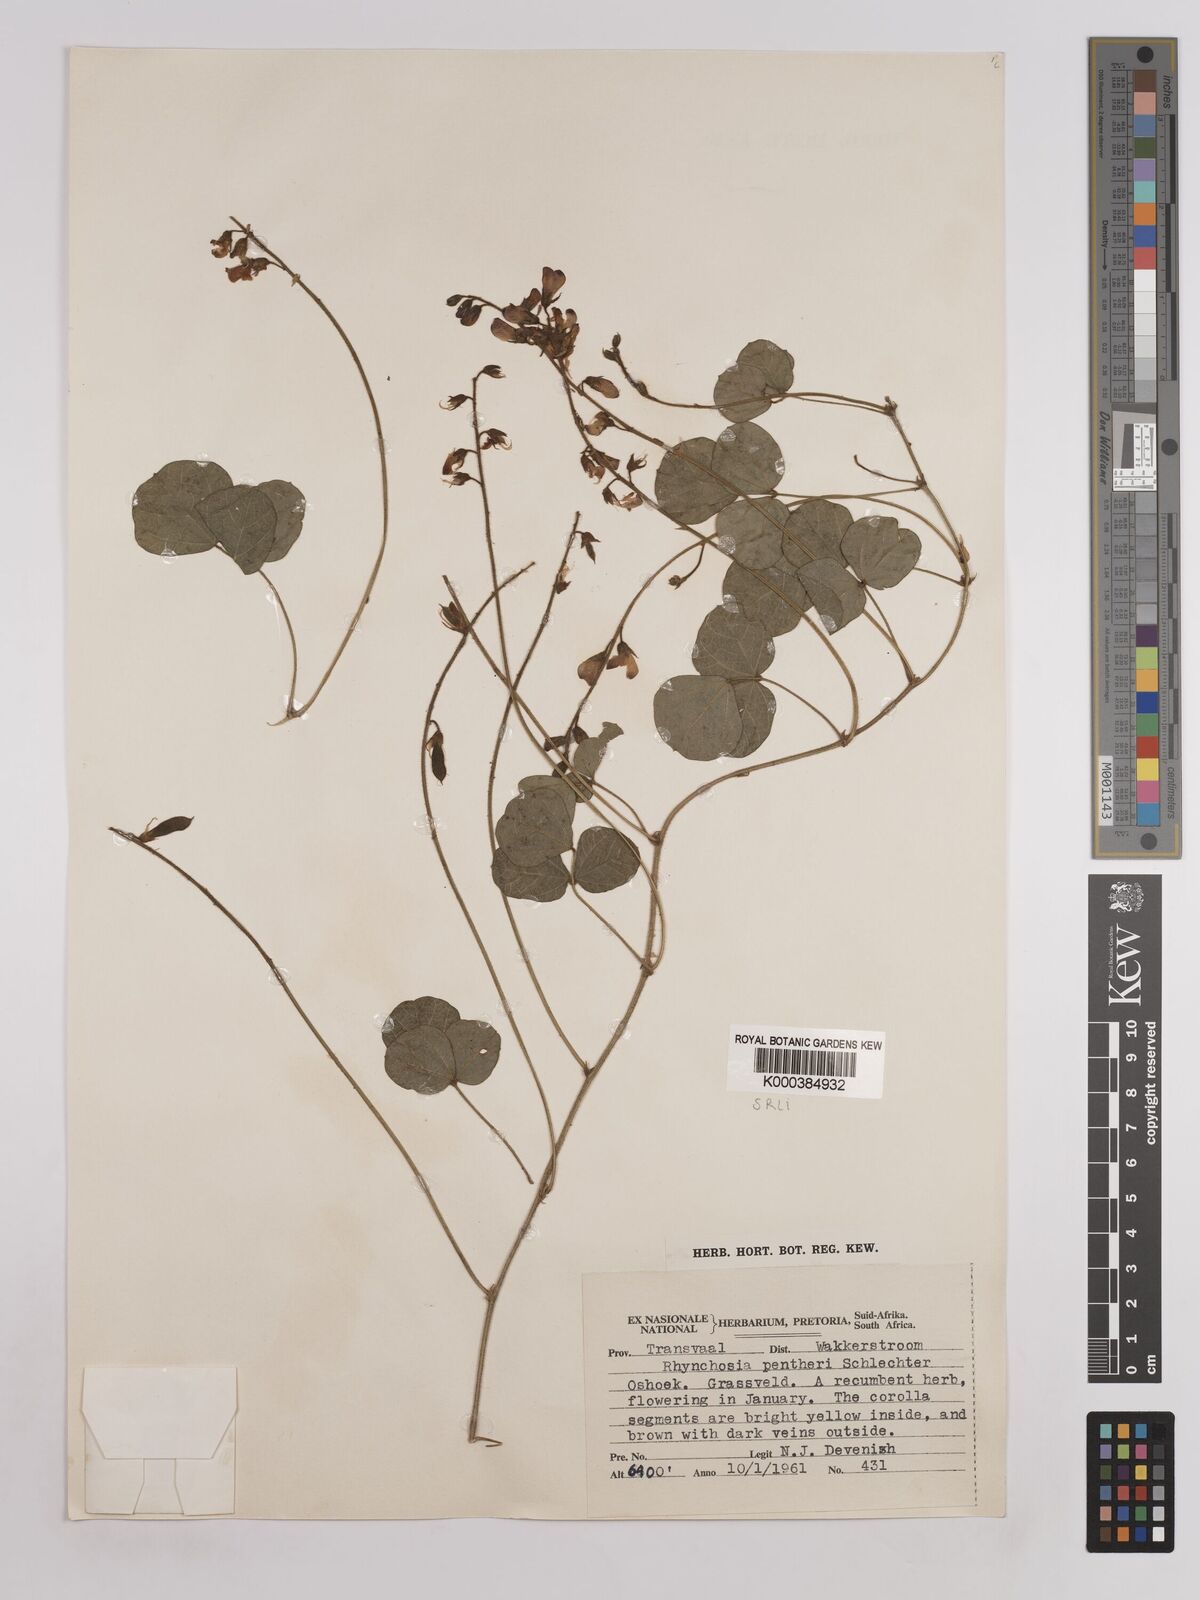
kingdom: Plantae
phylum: Tracheophyta
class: Magnoliopsida
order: Fabales
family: Fabaceae
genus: Rhynchosia
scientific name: Rhynchosia pentheri
